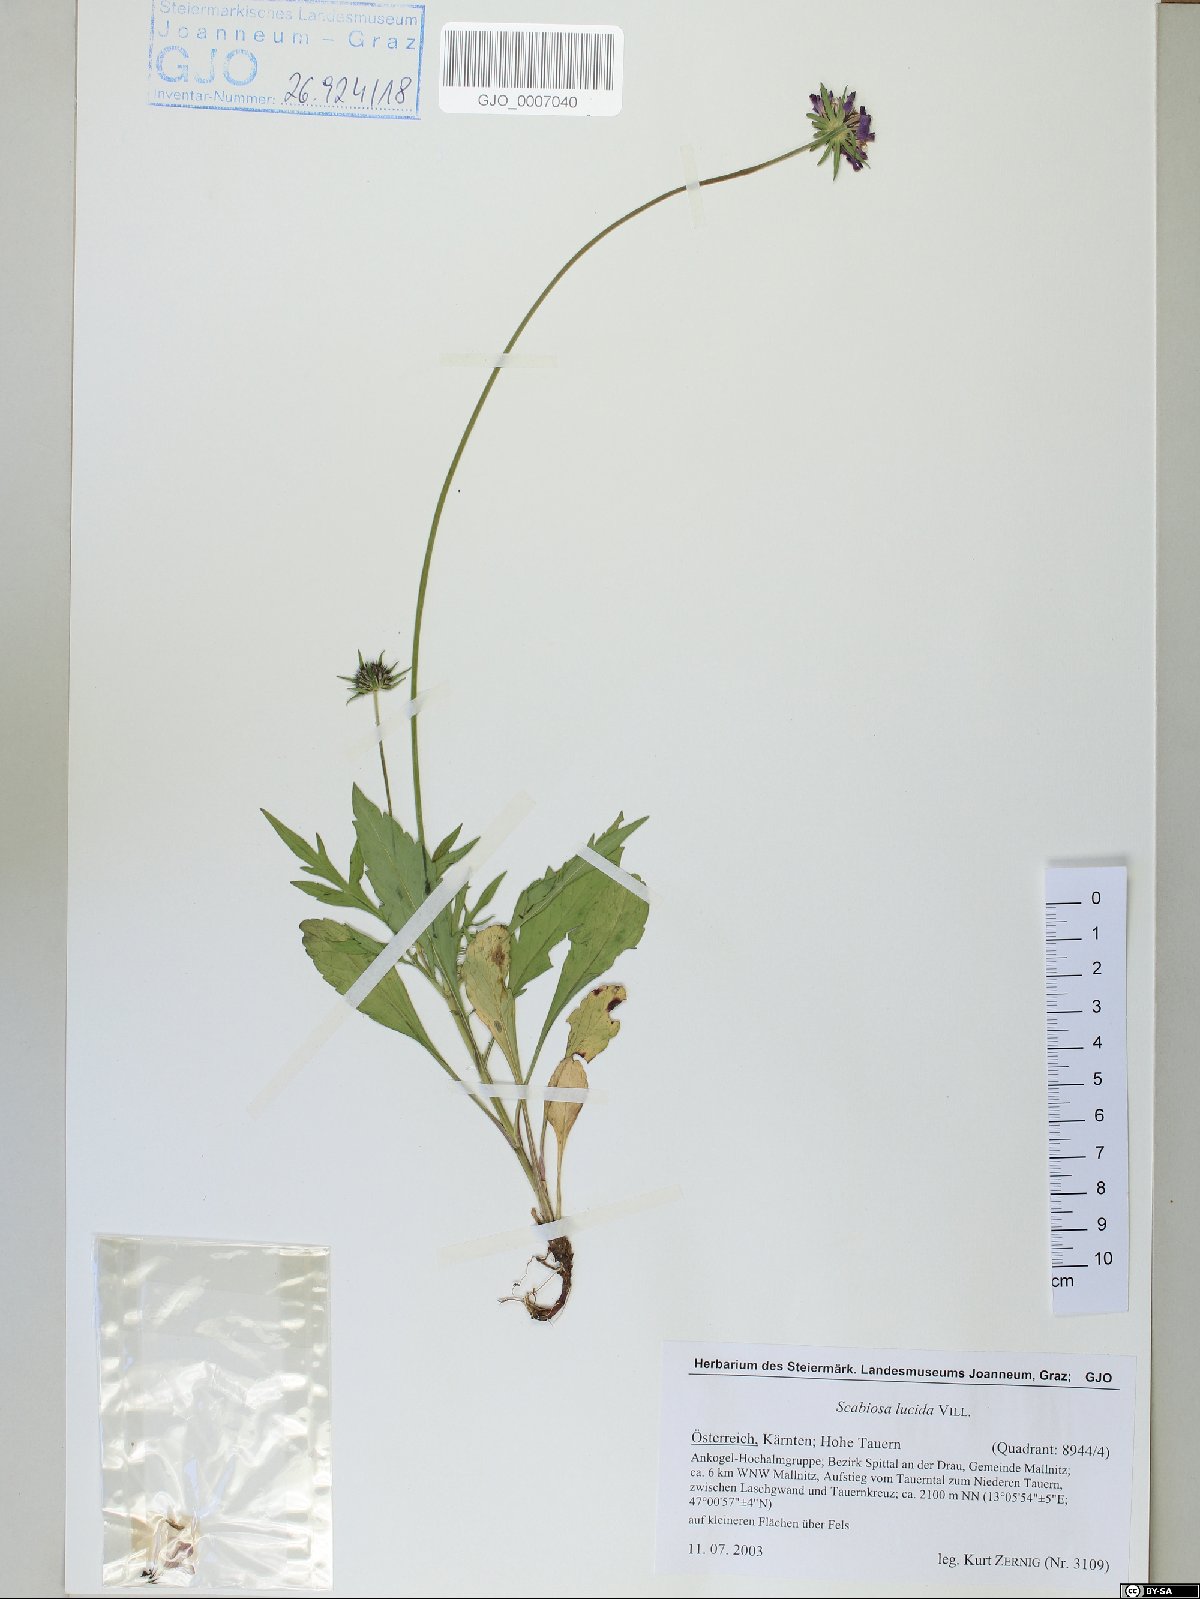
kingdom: Plantae
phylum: Tracheophyta
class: Magnoliopsida
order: Dipsacales
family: Caprifoliaceae
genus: Scabiosa
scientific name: Scabiosa lucida
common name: Shining scabious
